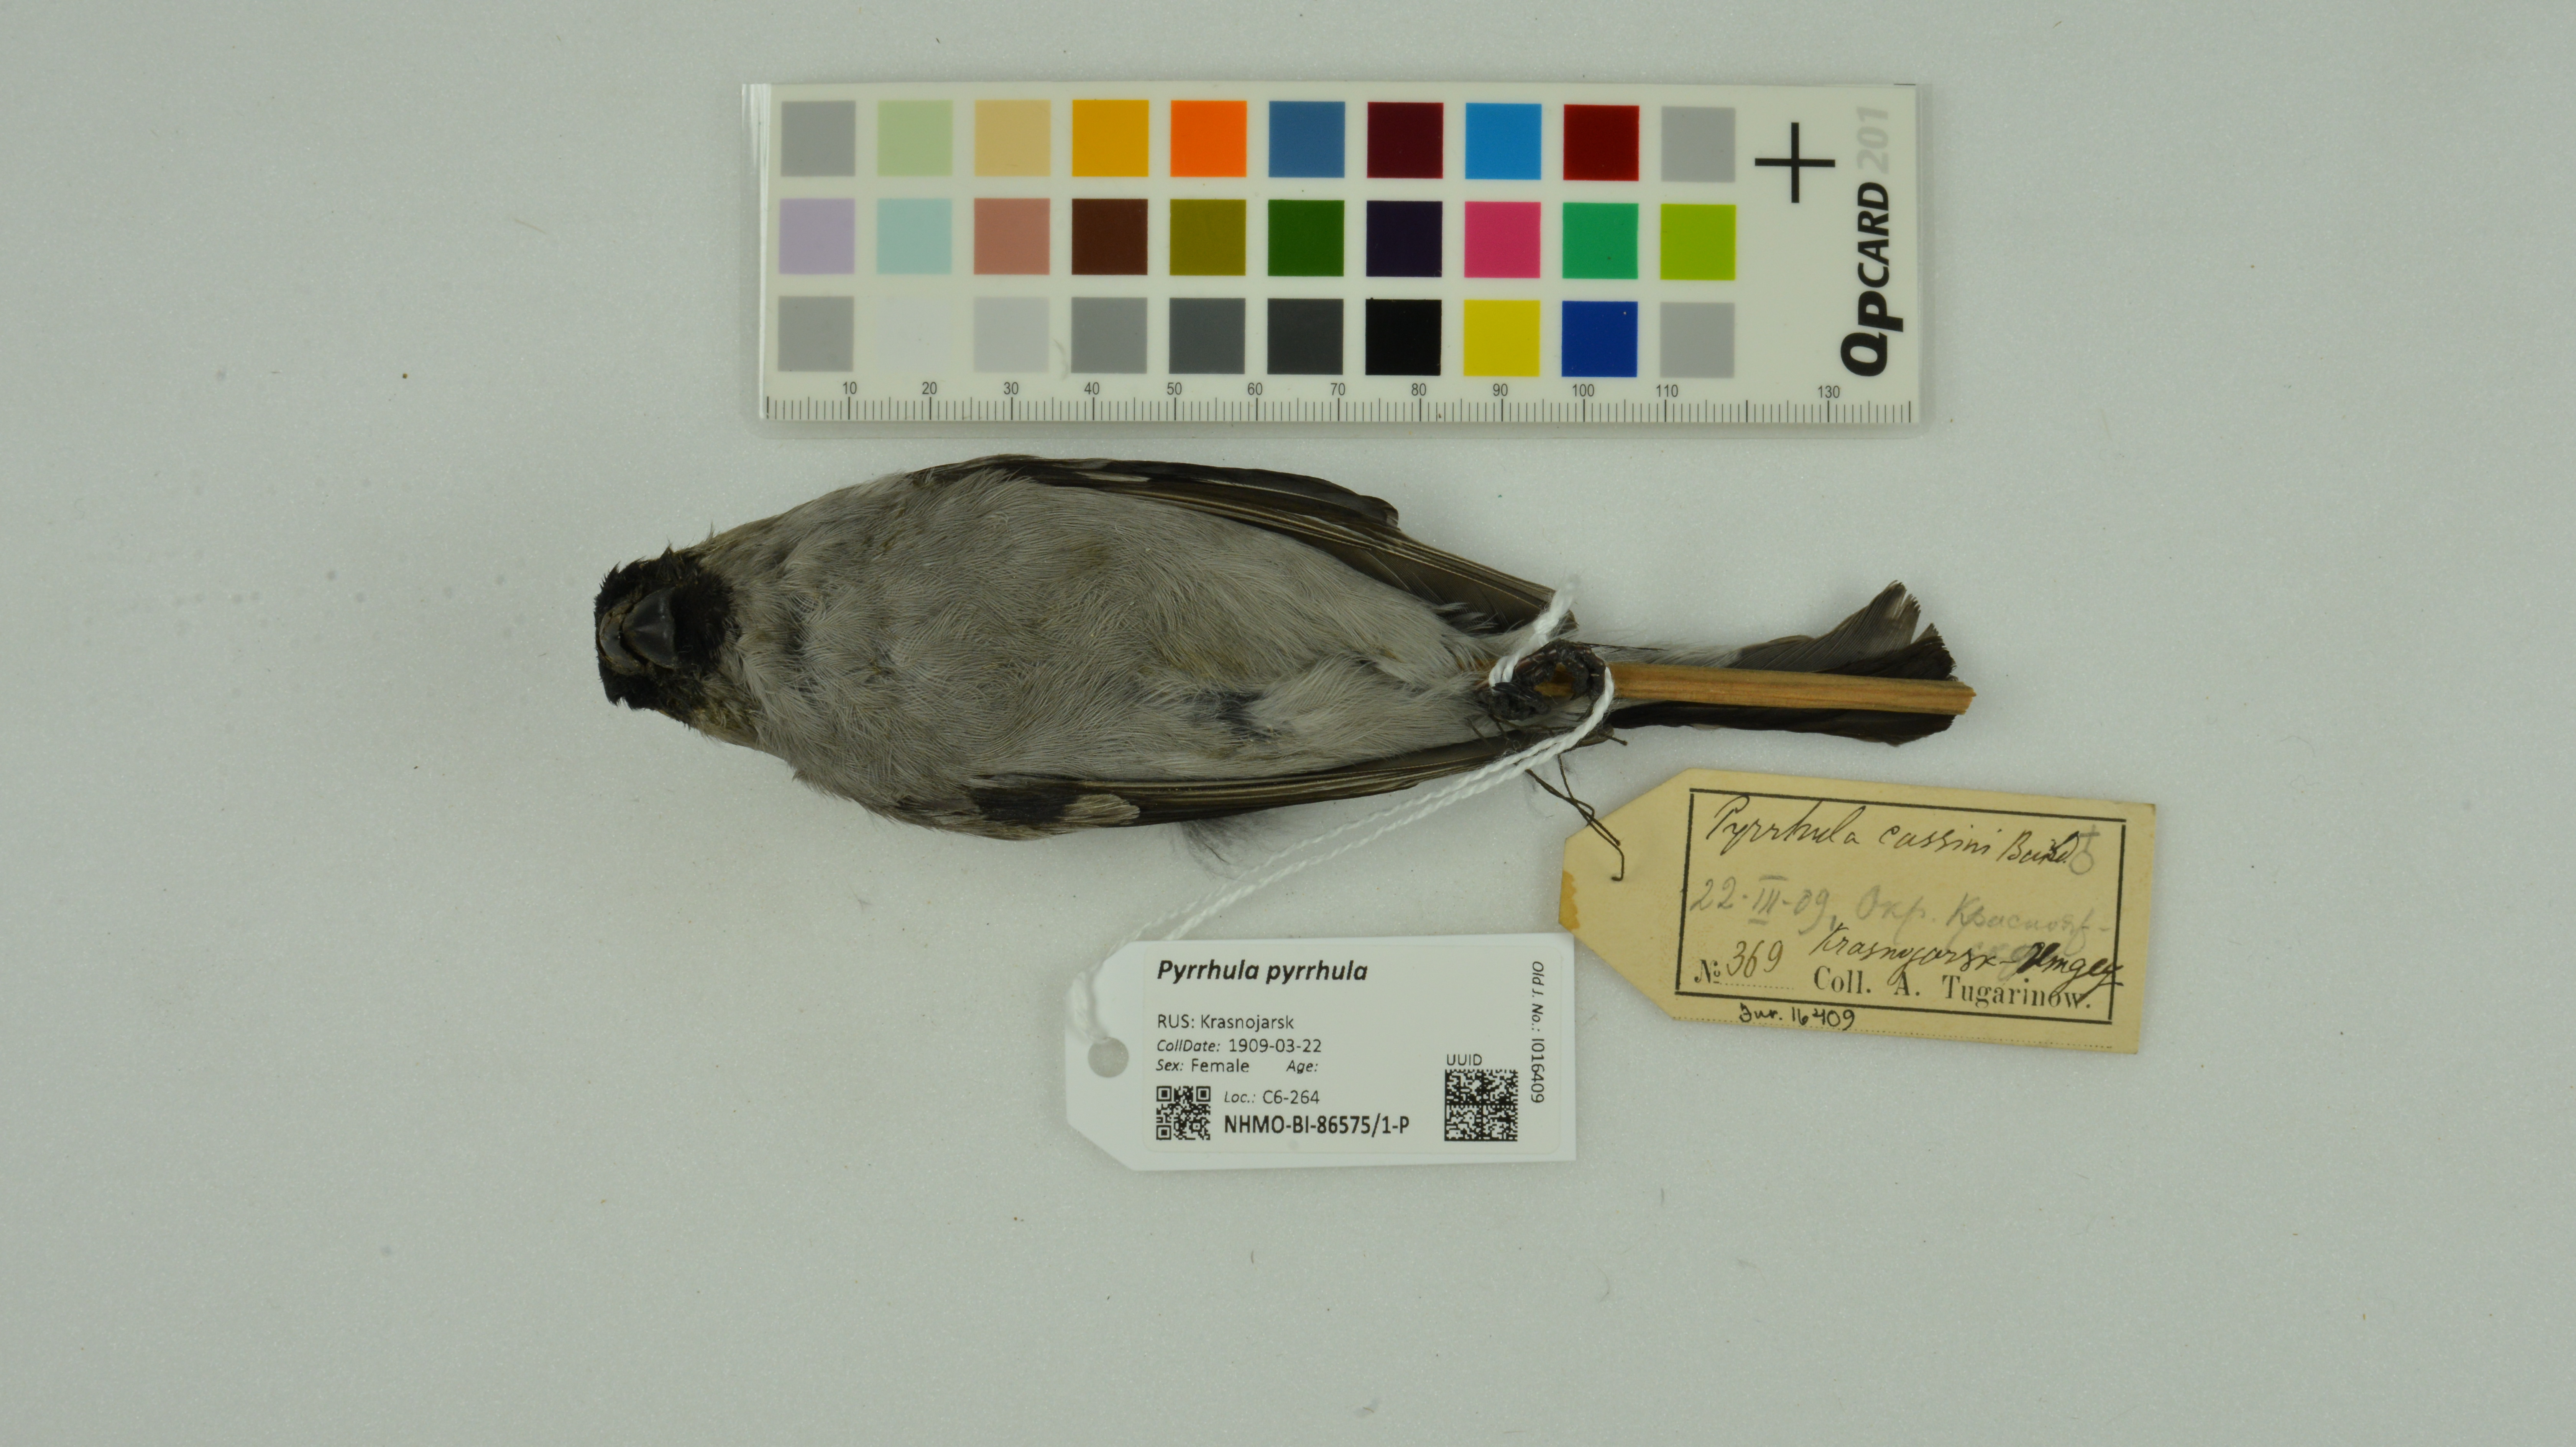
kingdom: Animalia
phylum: Chordata
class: Aves
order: Passeriformes
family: Fringillidae
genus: Pyrrhula
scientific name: Pyrrhula pyrrhula
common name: Eurasian bullfinch
